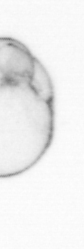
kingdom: Chromista
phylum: Myzozoa
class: Dinophyceae
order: Noctilucales
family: Noctilucaceae
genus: Noctiluca
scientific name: Noctiluca scintillans
